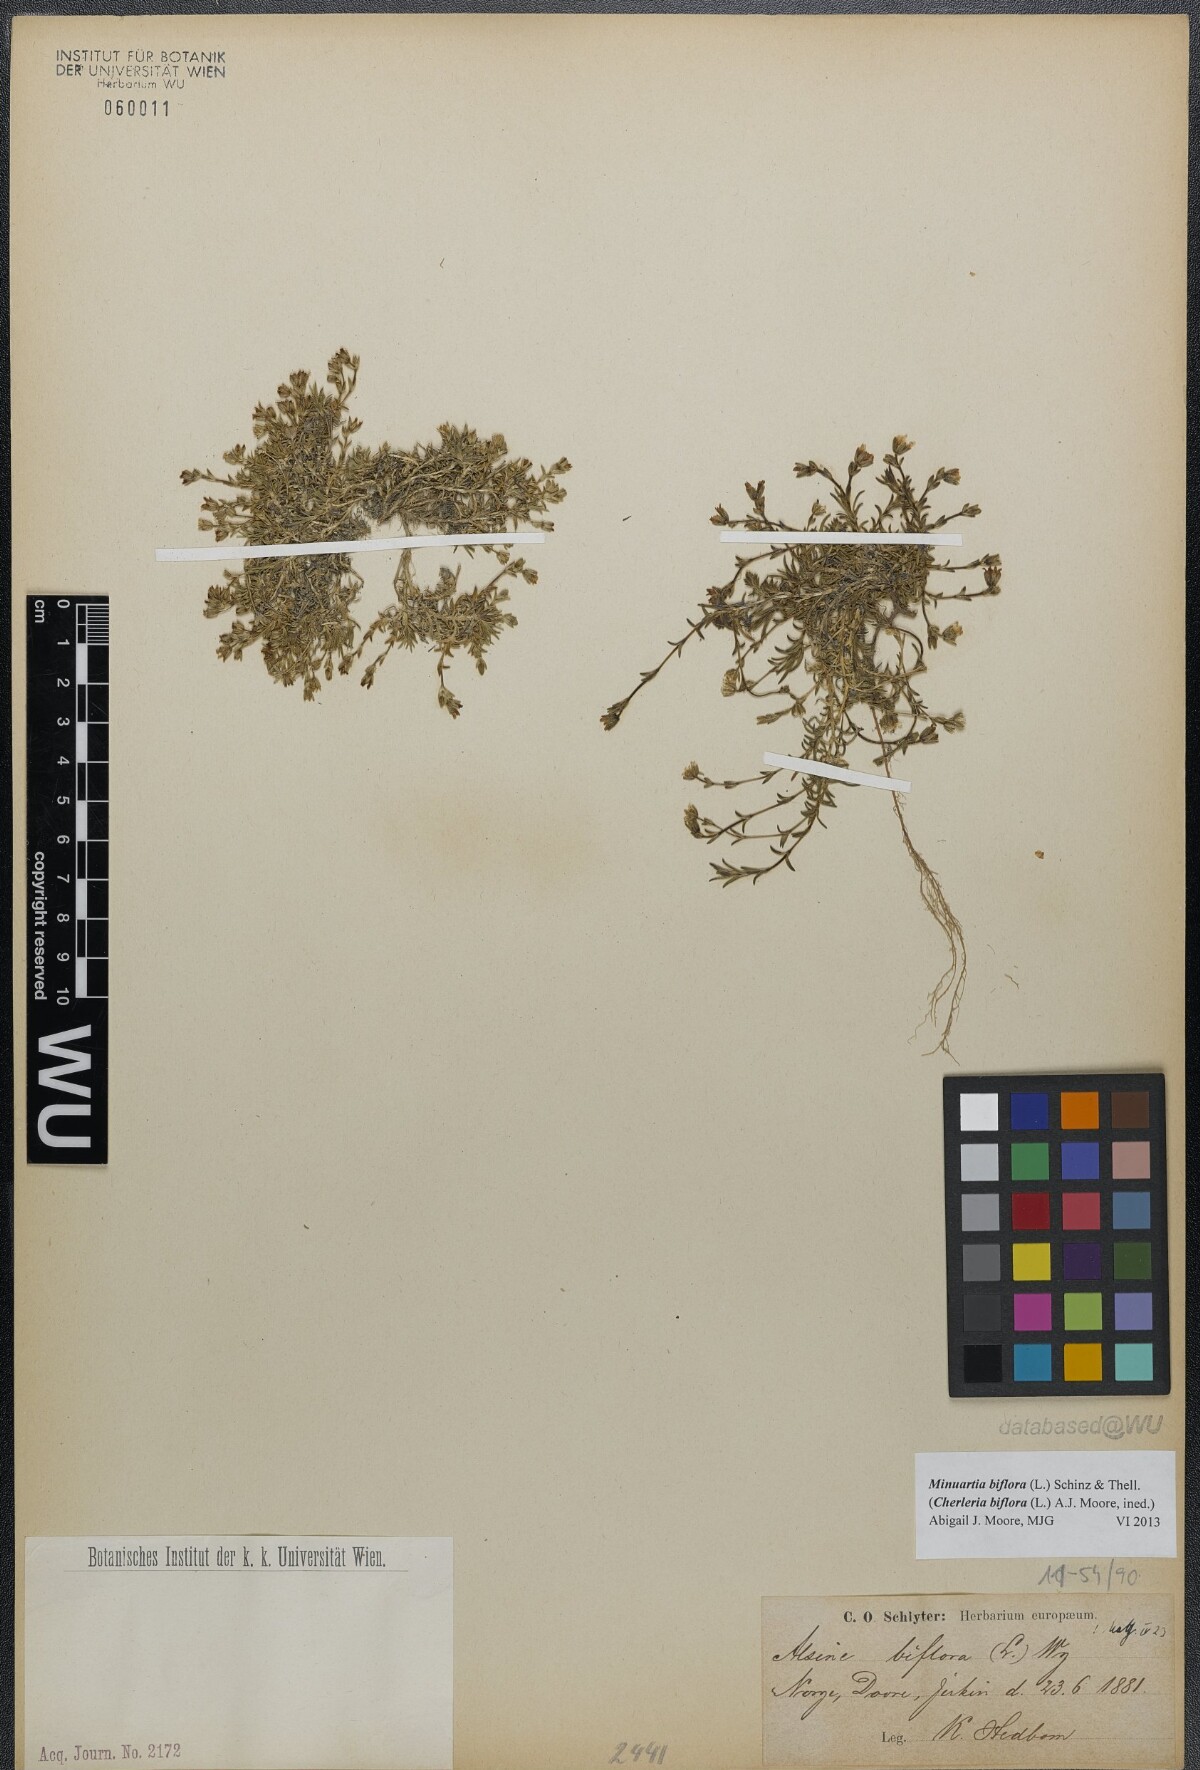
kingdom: Plantae
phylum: Tracheophyta
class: Magnoliopsida
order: Caryophyllales
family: Caryophyllaceae
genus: Cherleria
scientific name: Cherleria biflora
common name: Mountain sandwort
